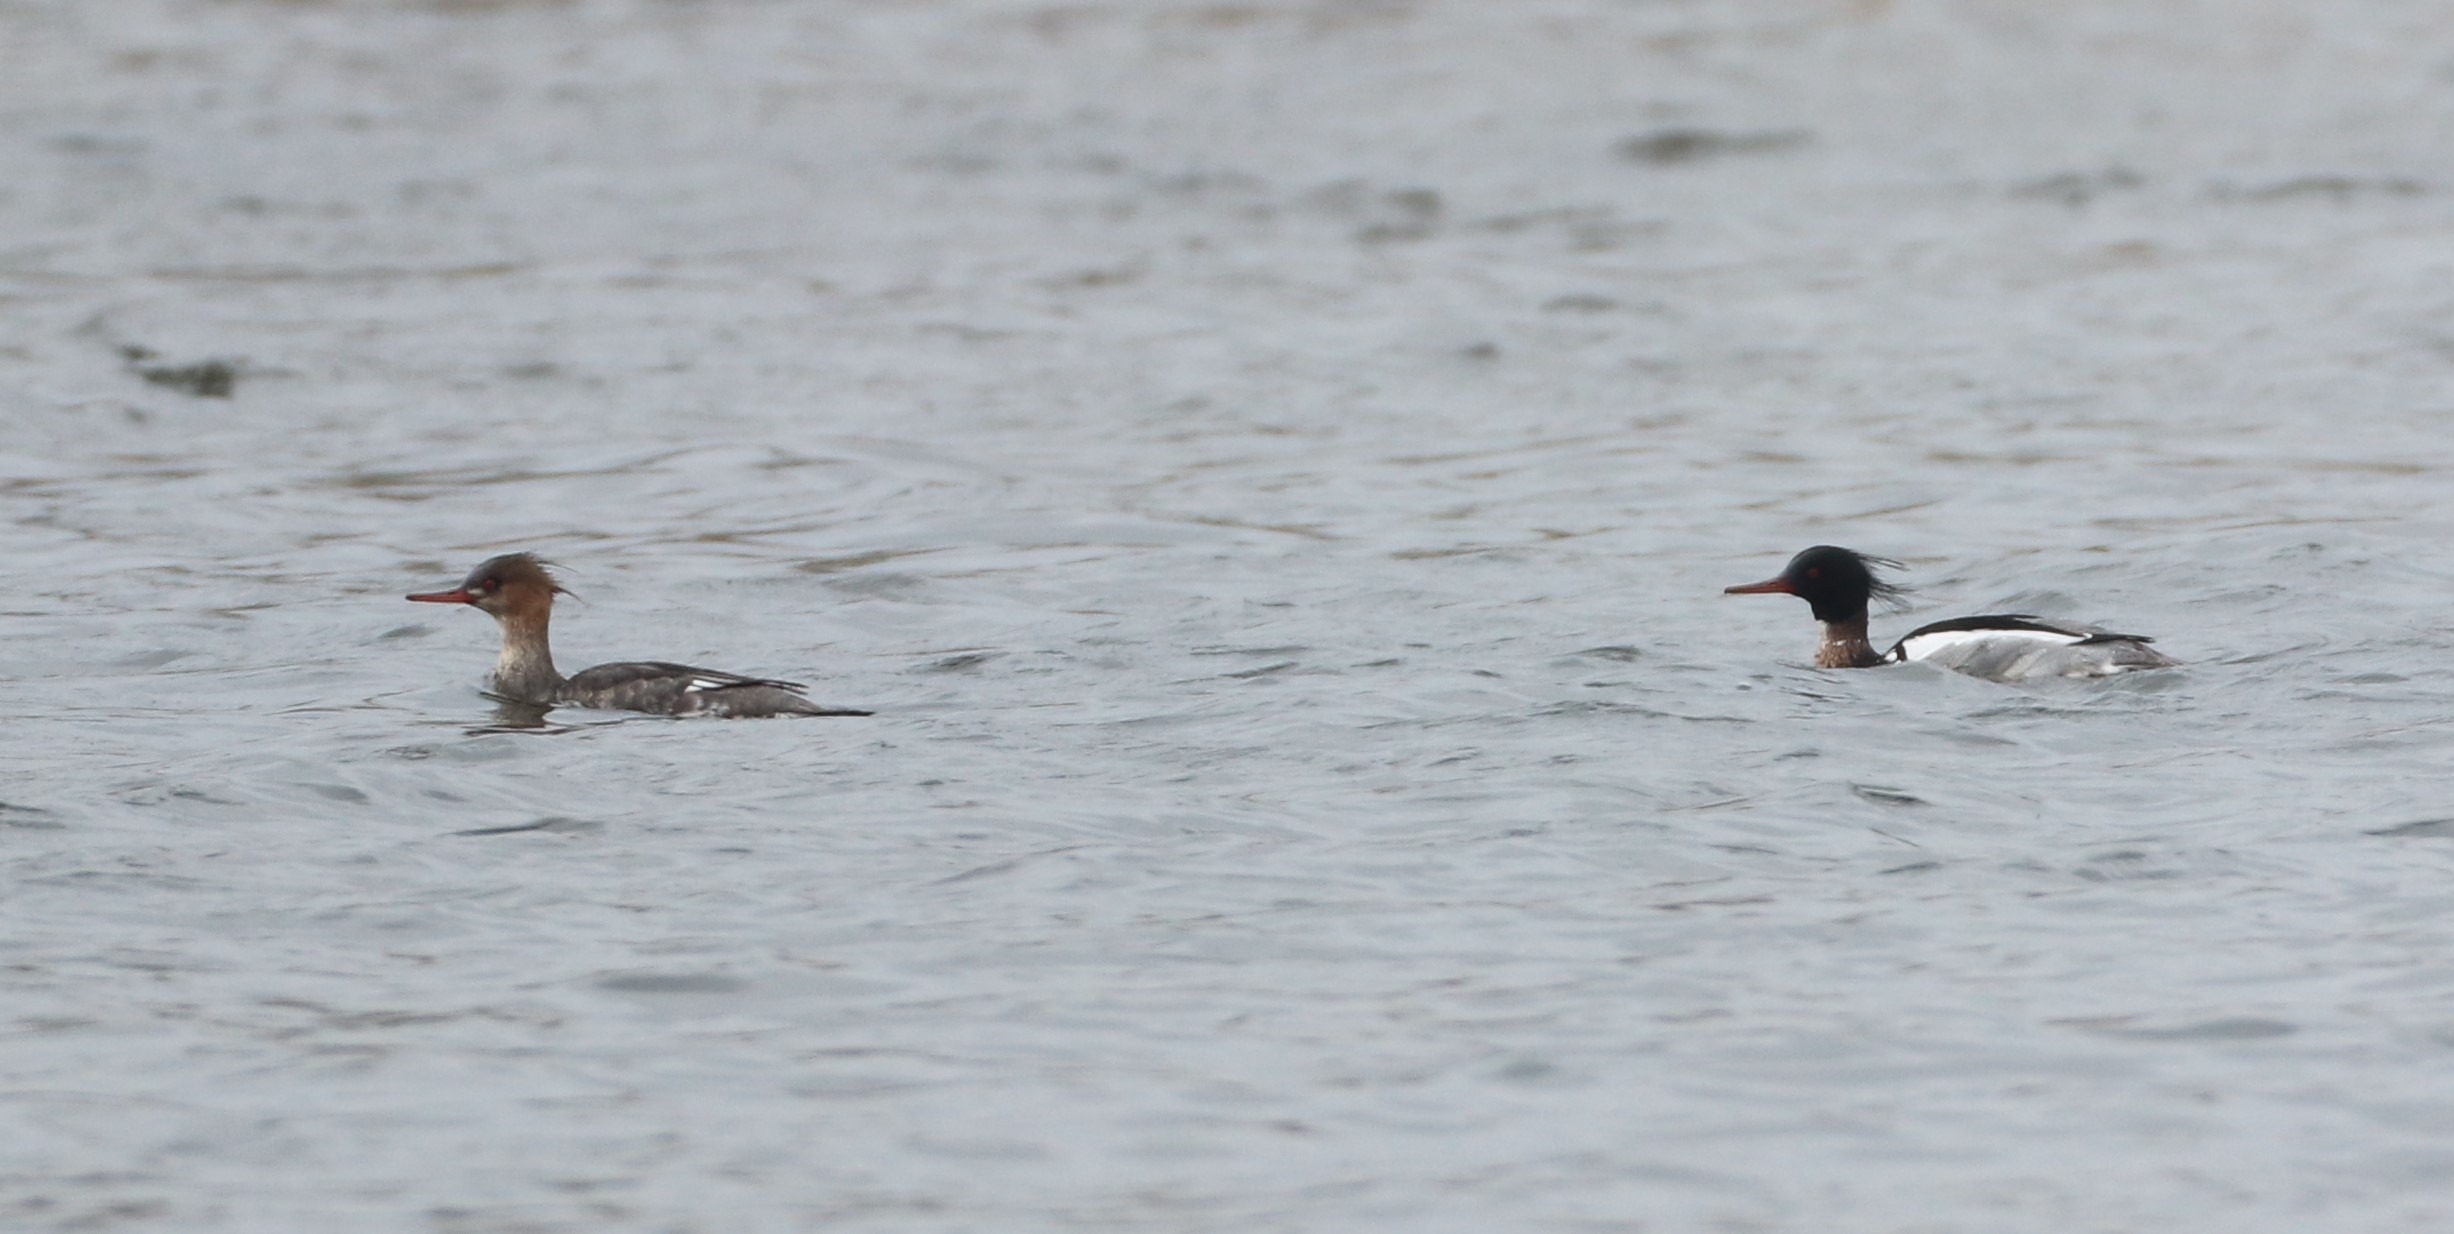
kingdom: Animalia
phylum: Chordata
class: Aves
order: Anseriformes
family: Anatidae
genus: Mergus
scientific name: Mergus serrator
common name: Toppet skallesluger
